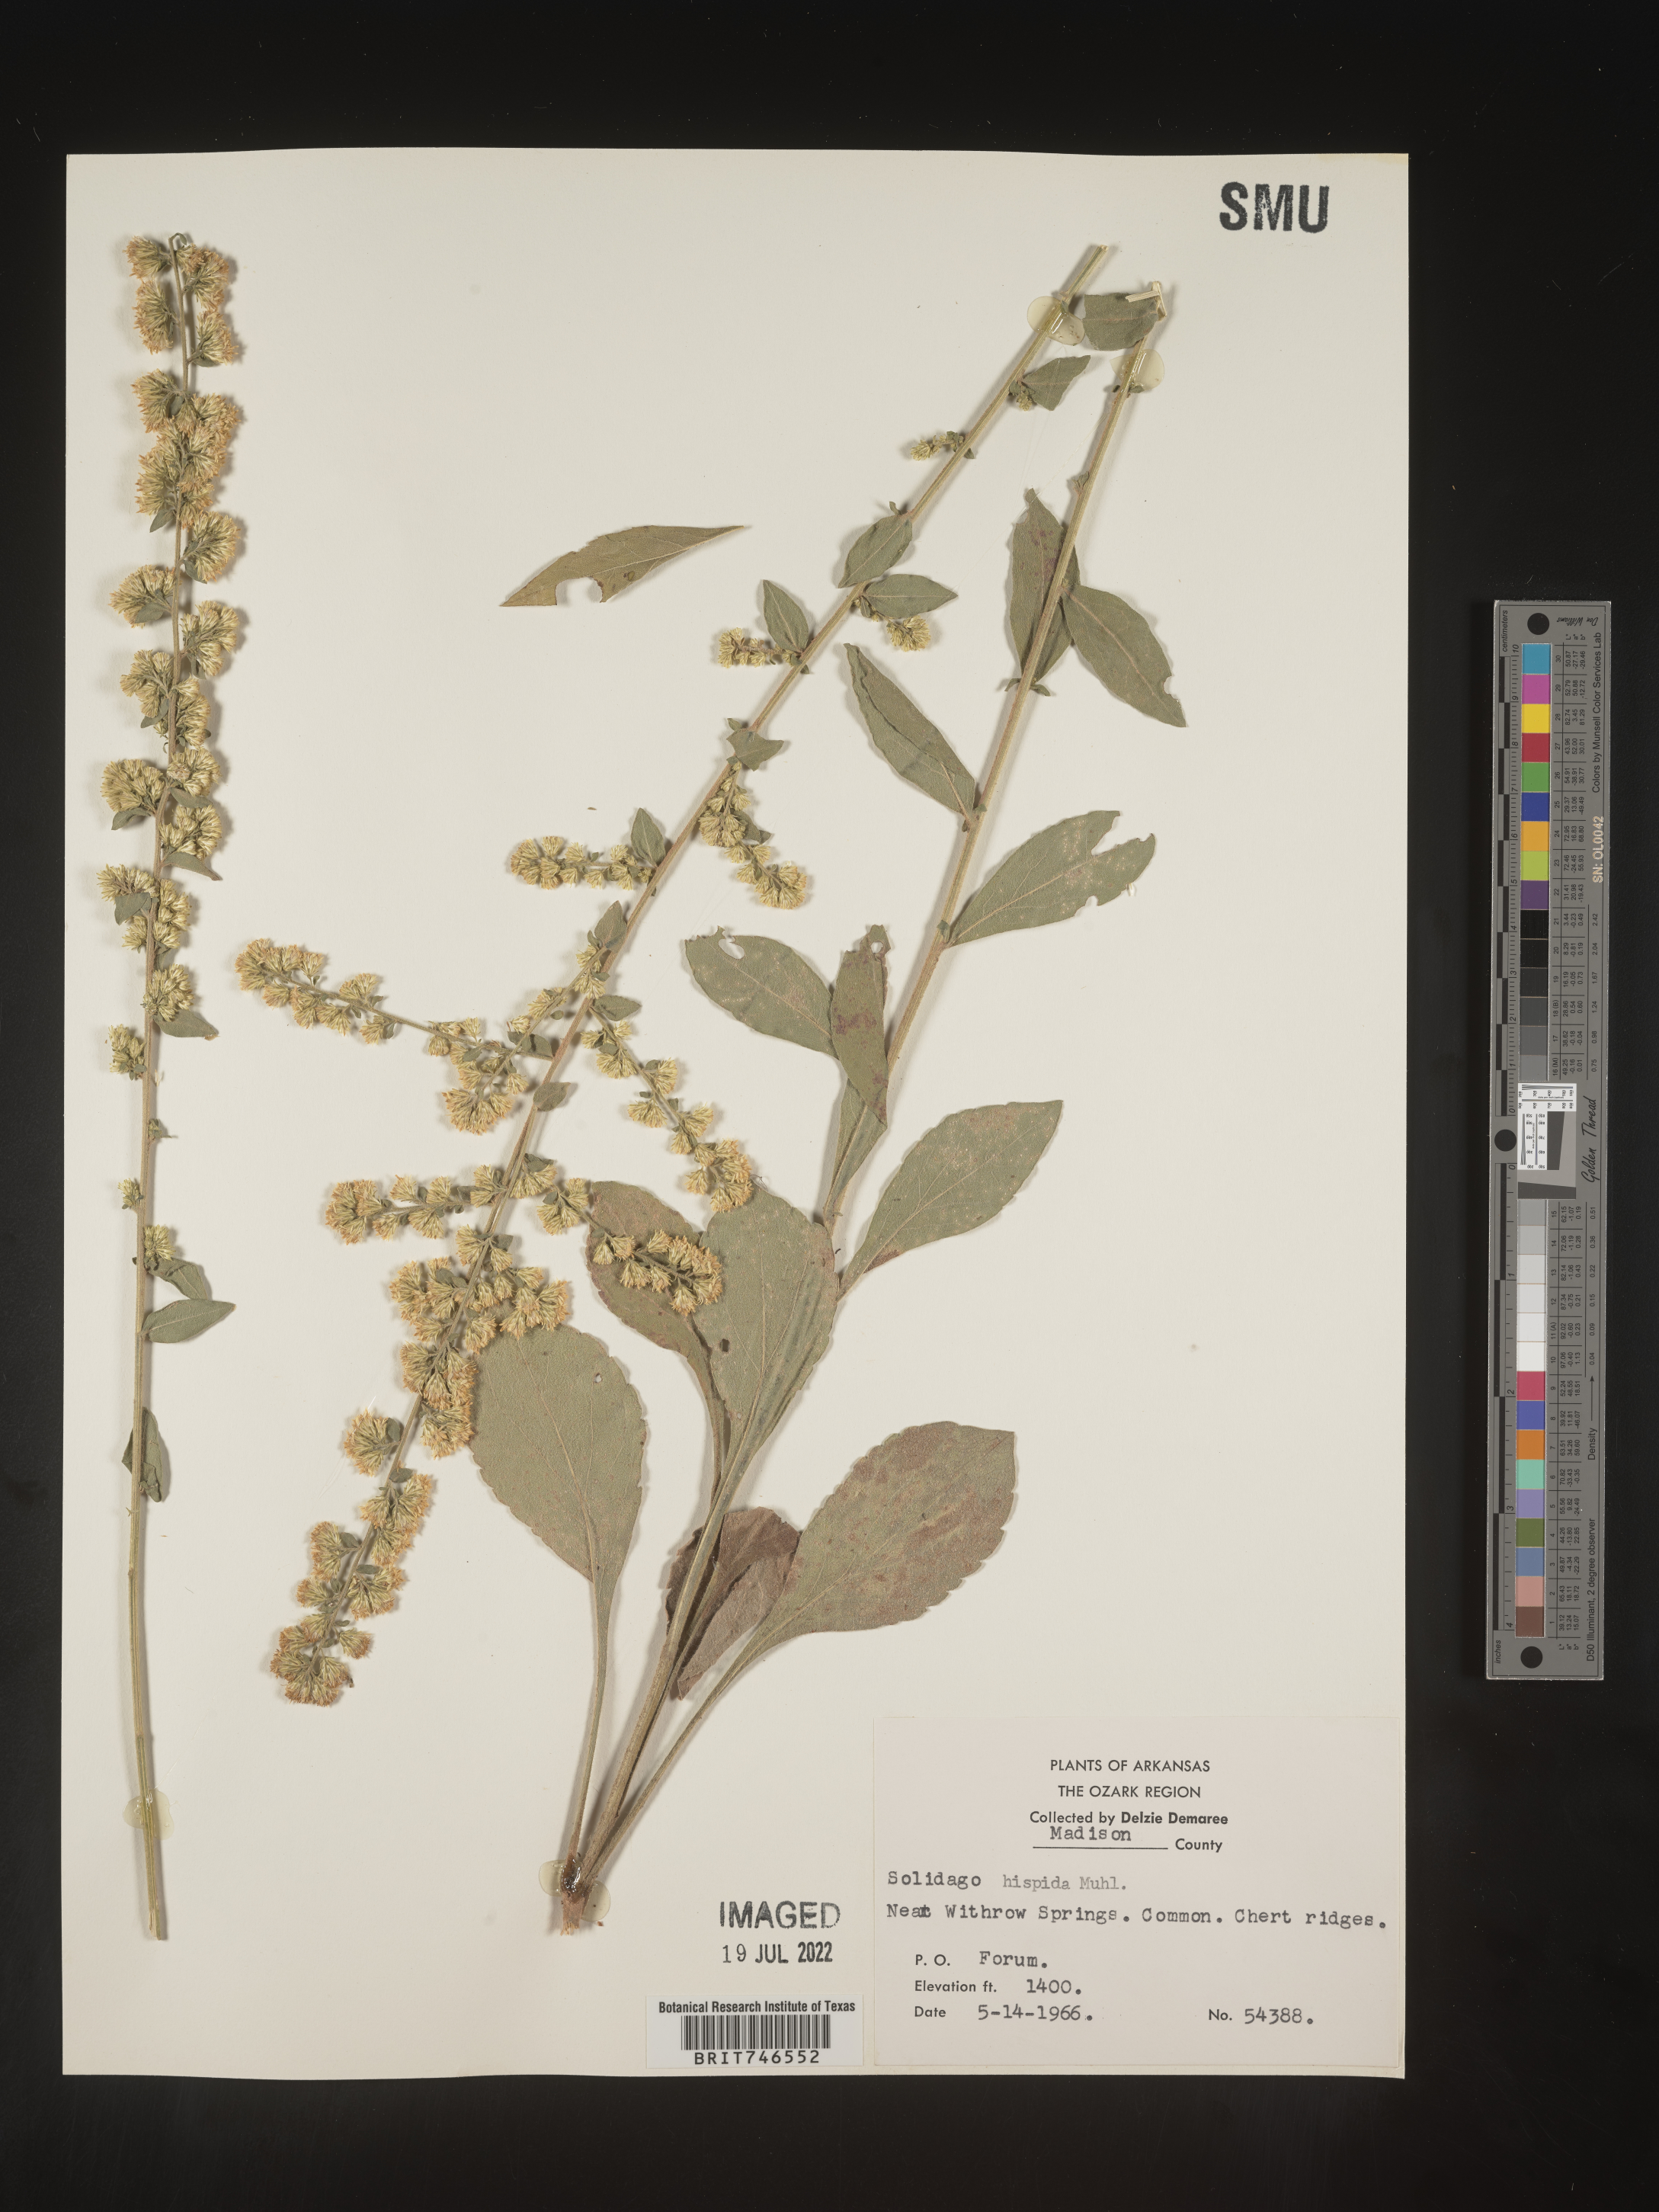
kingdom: Plantae
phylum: Tracheophyta
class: Magnoliopsida
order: Asterales
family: Asteraceae
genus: Solidago
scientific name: Solidago hispida
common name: Hairy goldenrod
